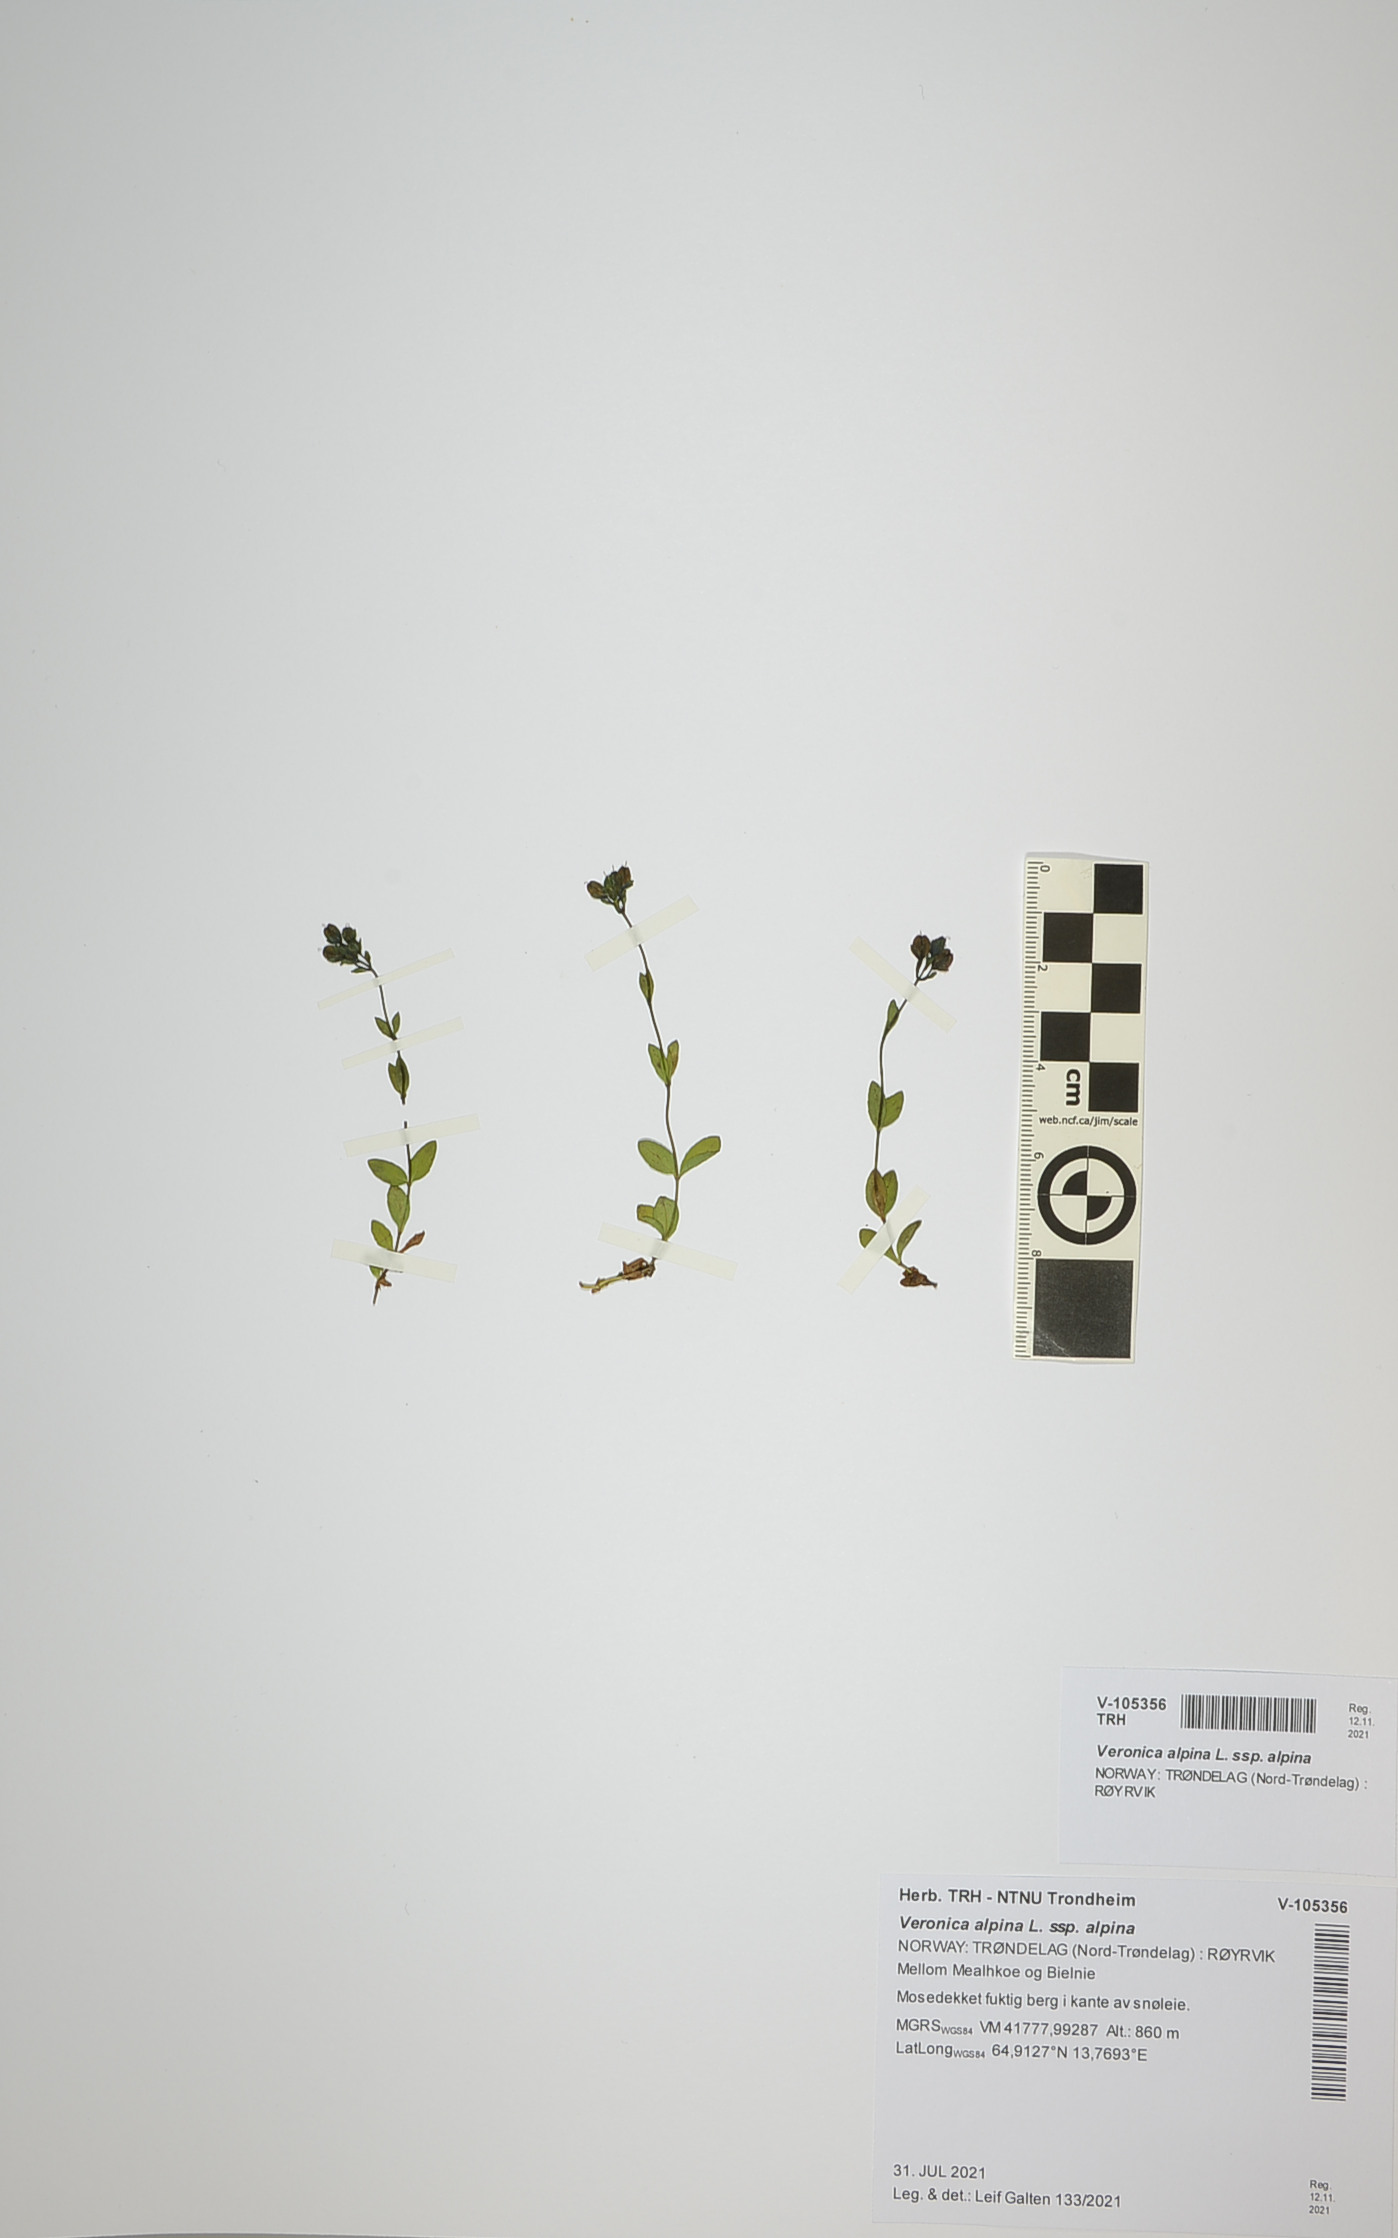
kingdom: Plantae
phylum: Tracheophyta
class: Magnoliopsida
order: Lamiales
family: Plantaginaceae
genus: Veronica
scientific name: Veronica alpina
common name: Alpine speedwell
